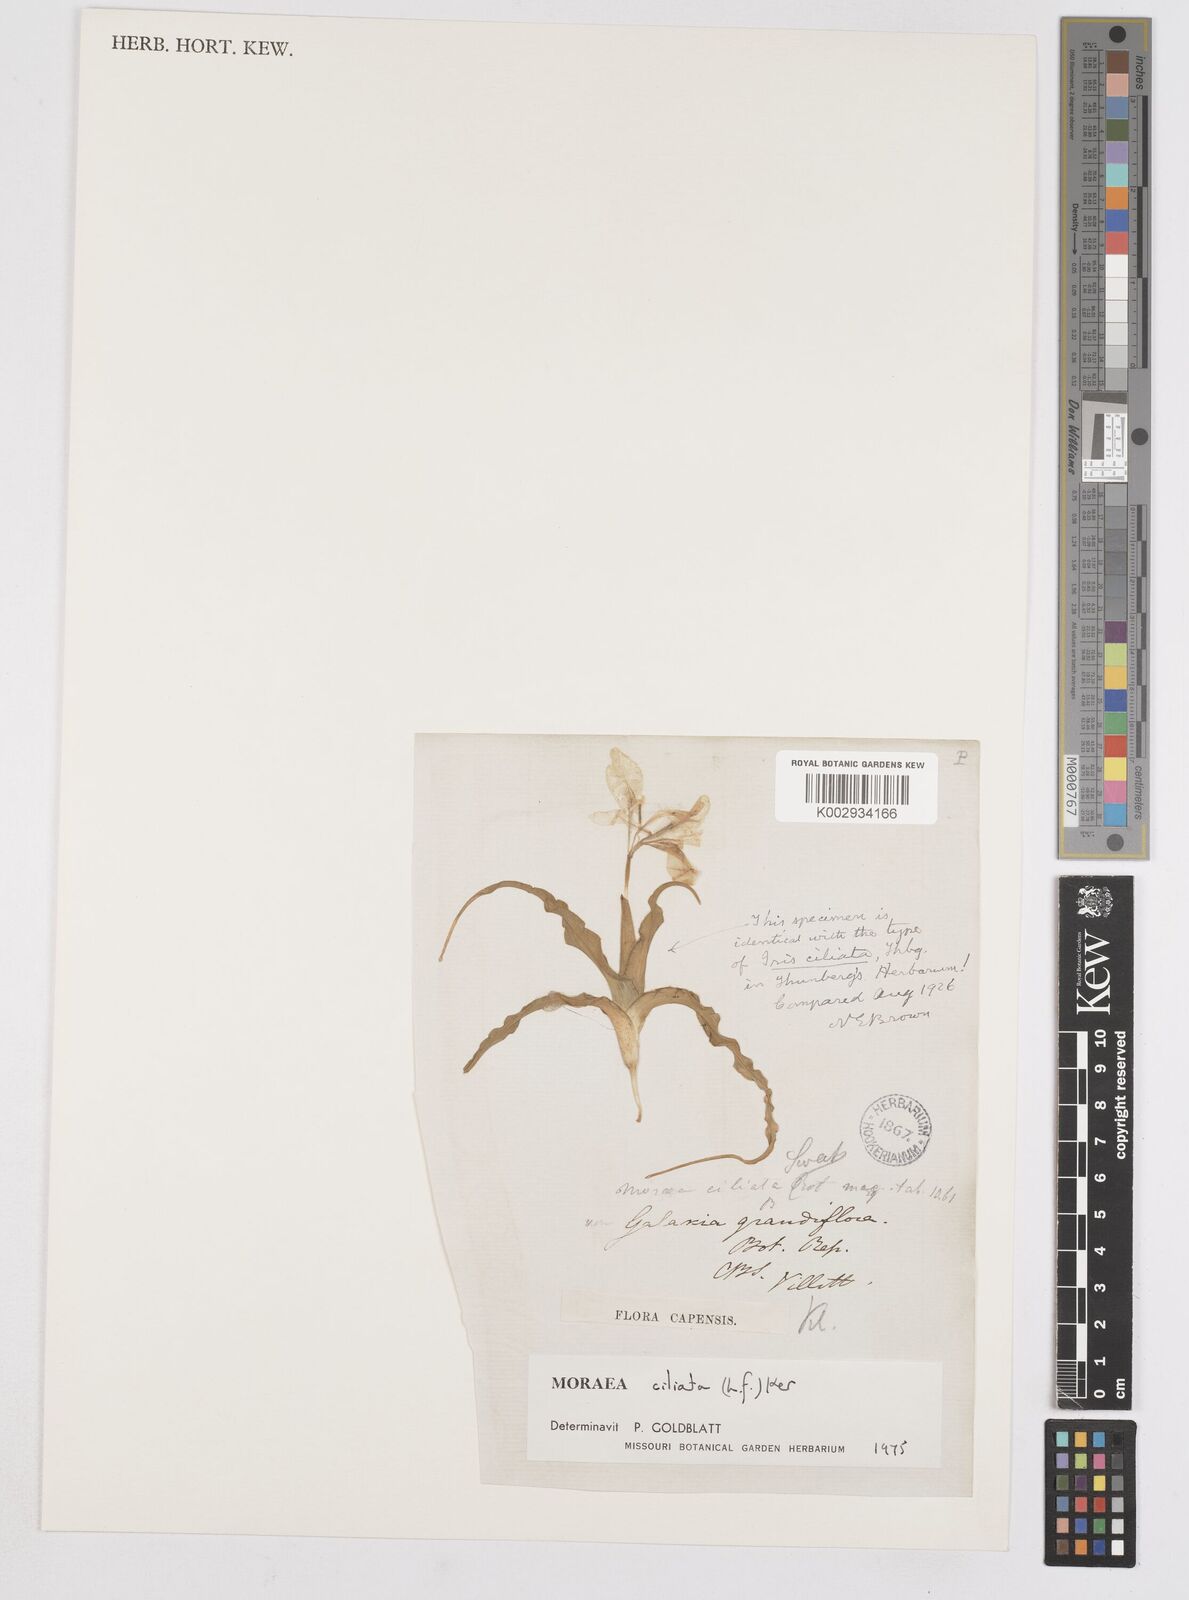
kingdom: Plantae
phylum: Tracheophyta
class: Liliopsida
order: Asparagales
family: Iridaceae
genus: Moraea
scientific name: Moraea ciliata
